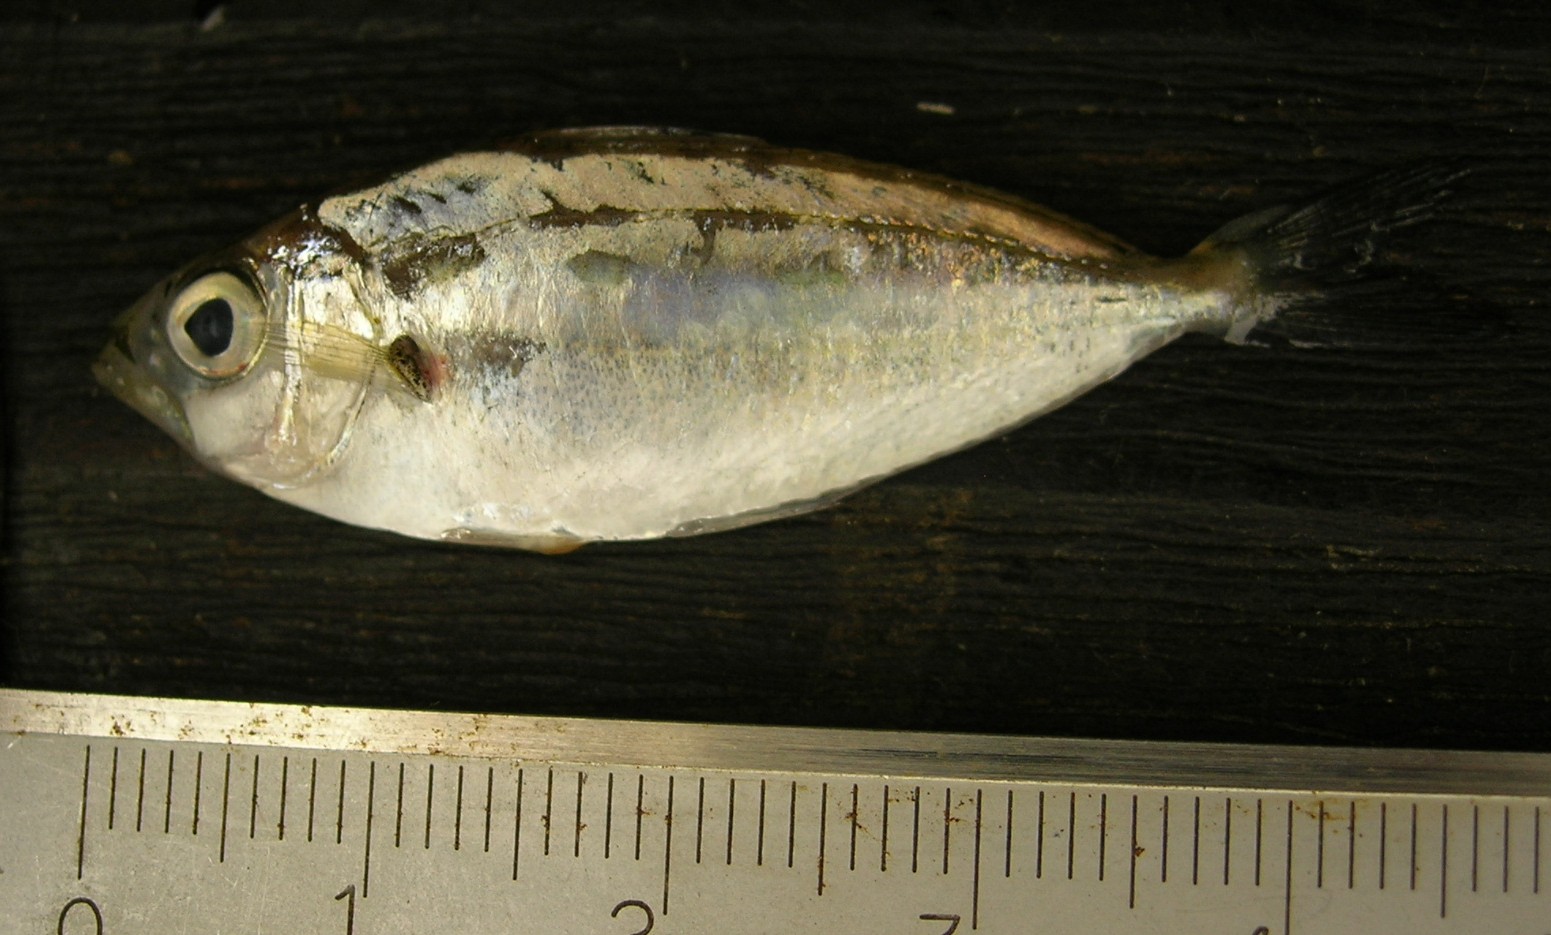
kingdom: Animalia
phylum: Chordata
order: Perciformes
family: Leiognathidae
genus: Gazza
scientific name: Gazza minuta
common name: Toothpony
